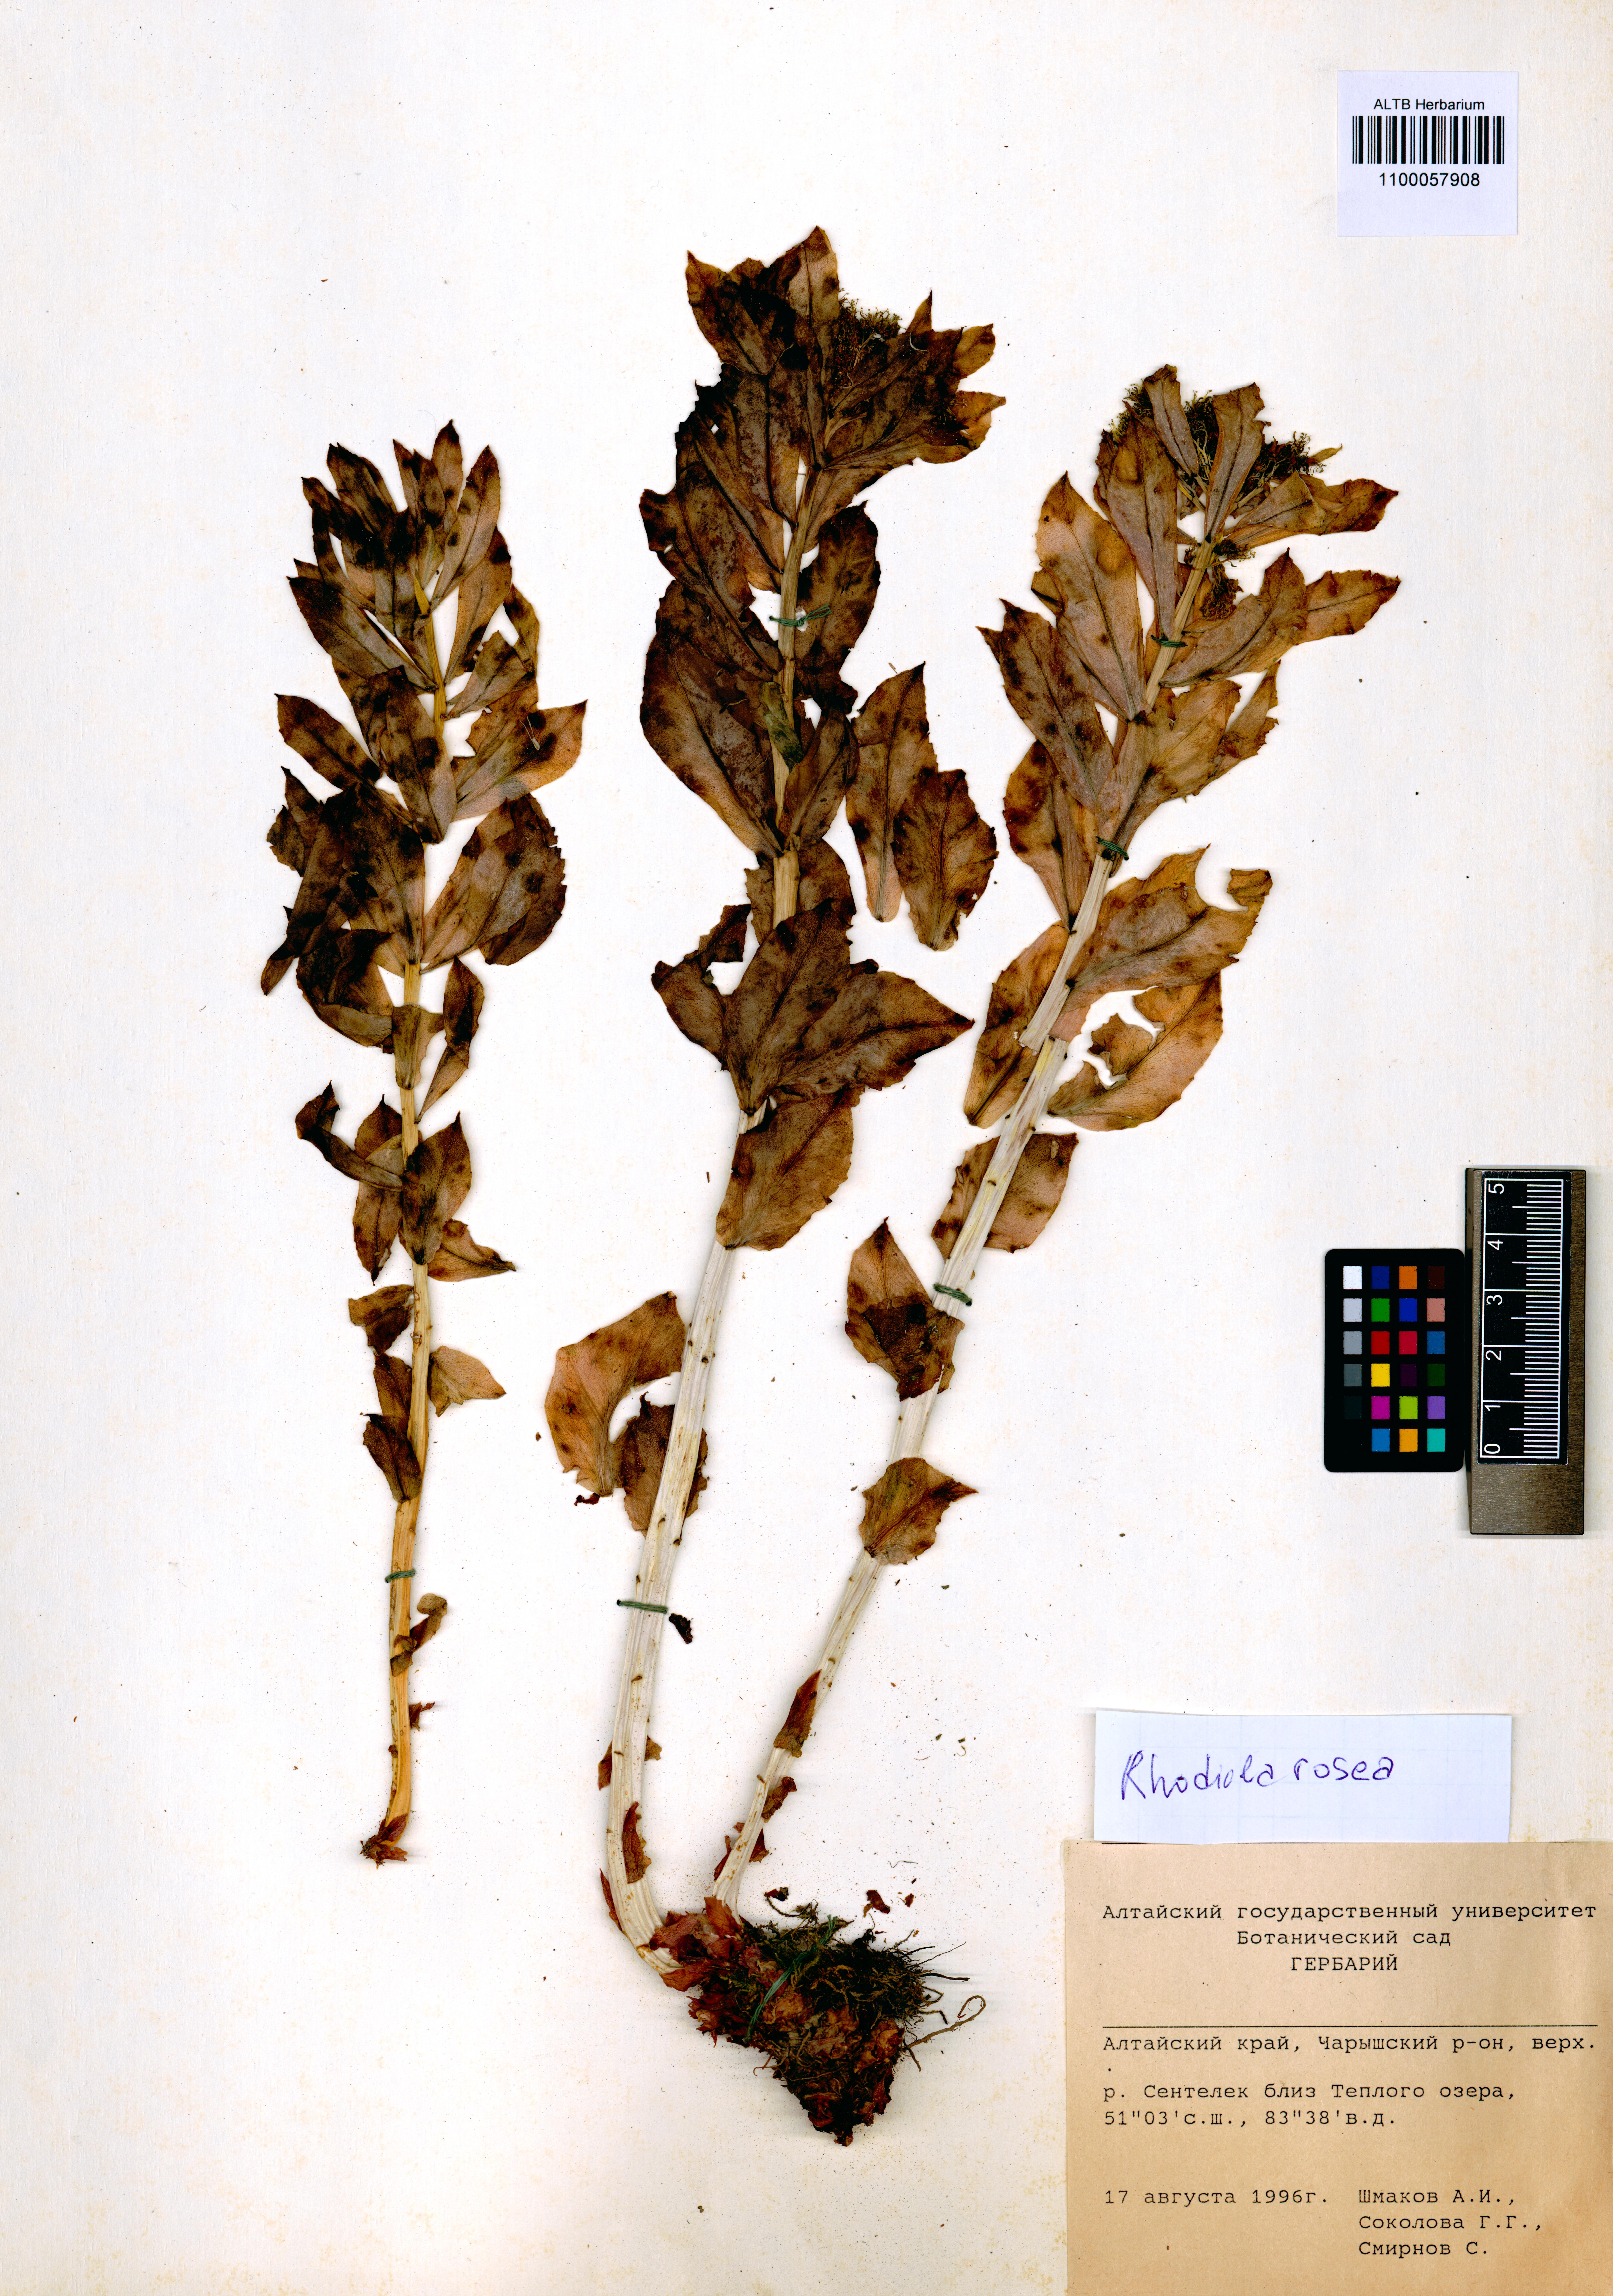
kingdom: Plantae
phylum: Tracheophyta
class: Magnoliopsida
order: Saxifragales
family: Crassulaceae
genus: Rhodiola
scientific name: Rhodiola rosea
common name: Roseroot
